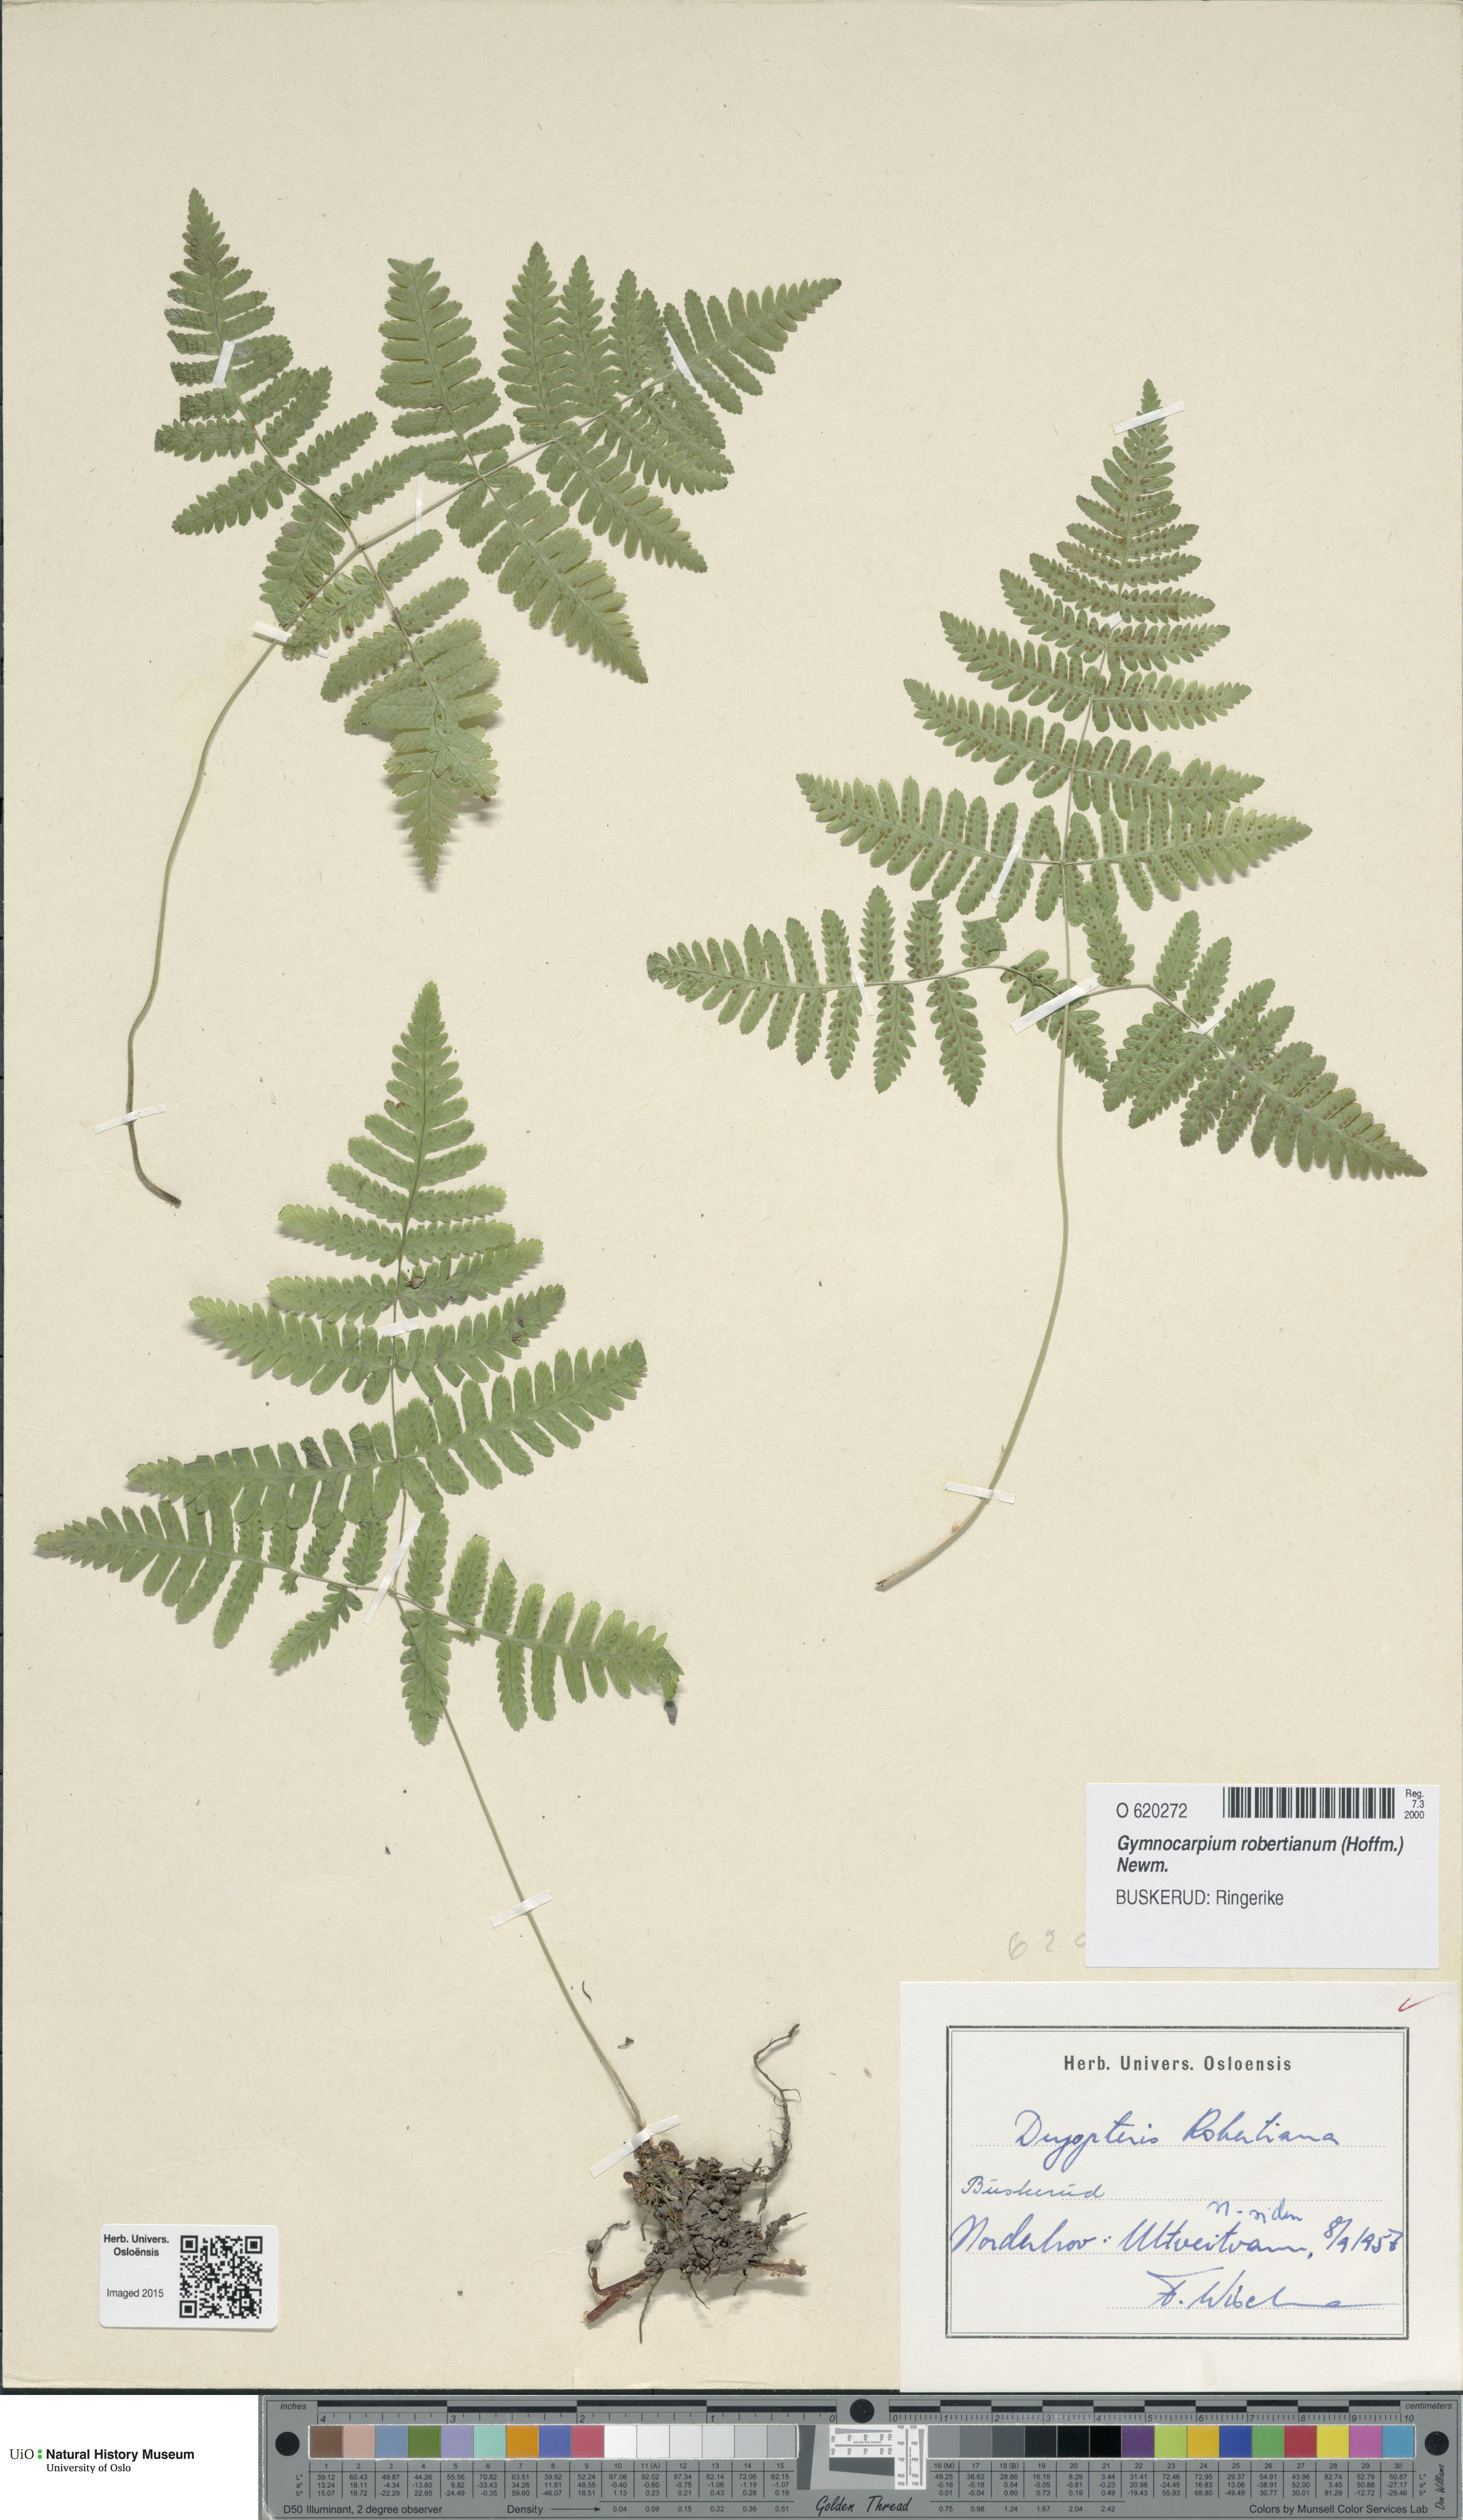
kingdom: Plantae
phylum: Tracheophyta
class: Polypodiopsida
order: Polypodiales
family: Cystopteridaceae
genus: Gymnocarpium
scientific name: Gymnocarpium robertianum
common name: Limestone fern
